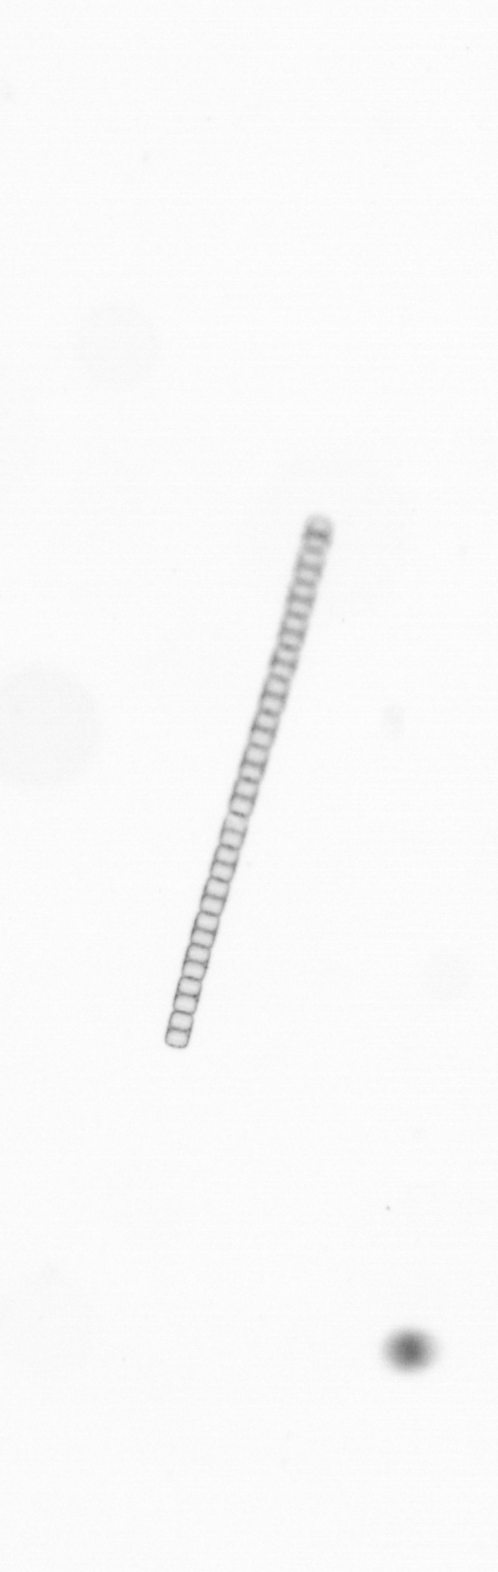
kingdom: Chromista
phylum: Ochrophyta
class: Bacillariophyceae
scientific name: Bacillariophyceae
